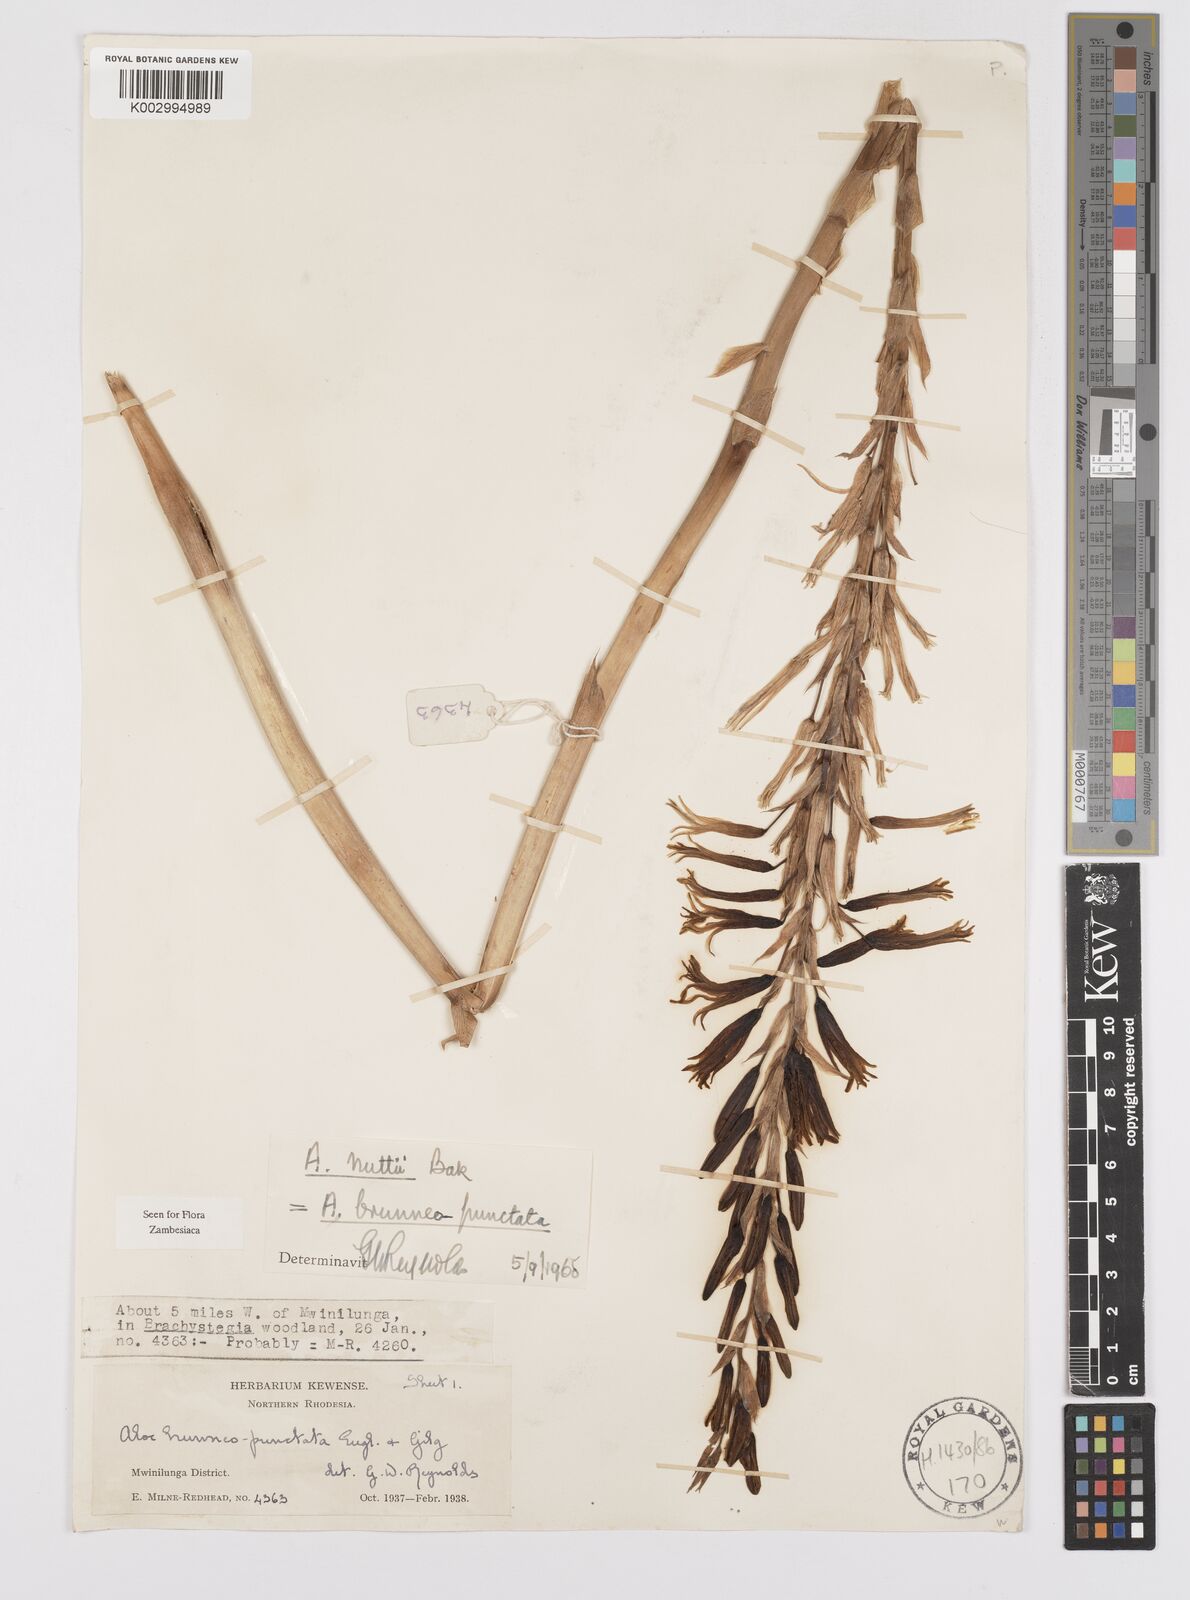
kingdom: Plantae
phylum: Tracheophyta
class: Liliopsida
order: Asparagales
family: Asphodelaceae
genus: Aloe
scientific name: Aloe nuttii
